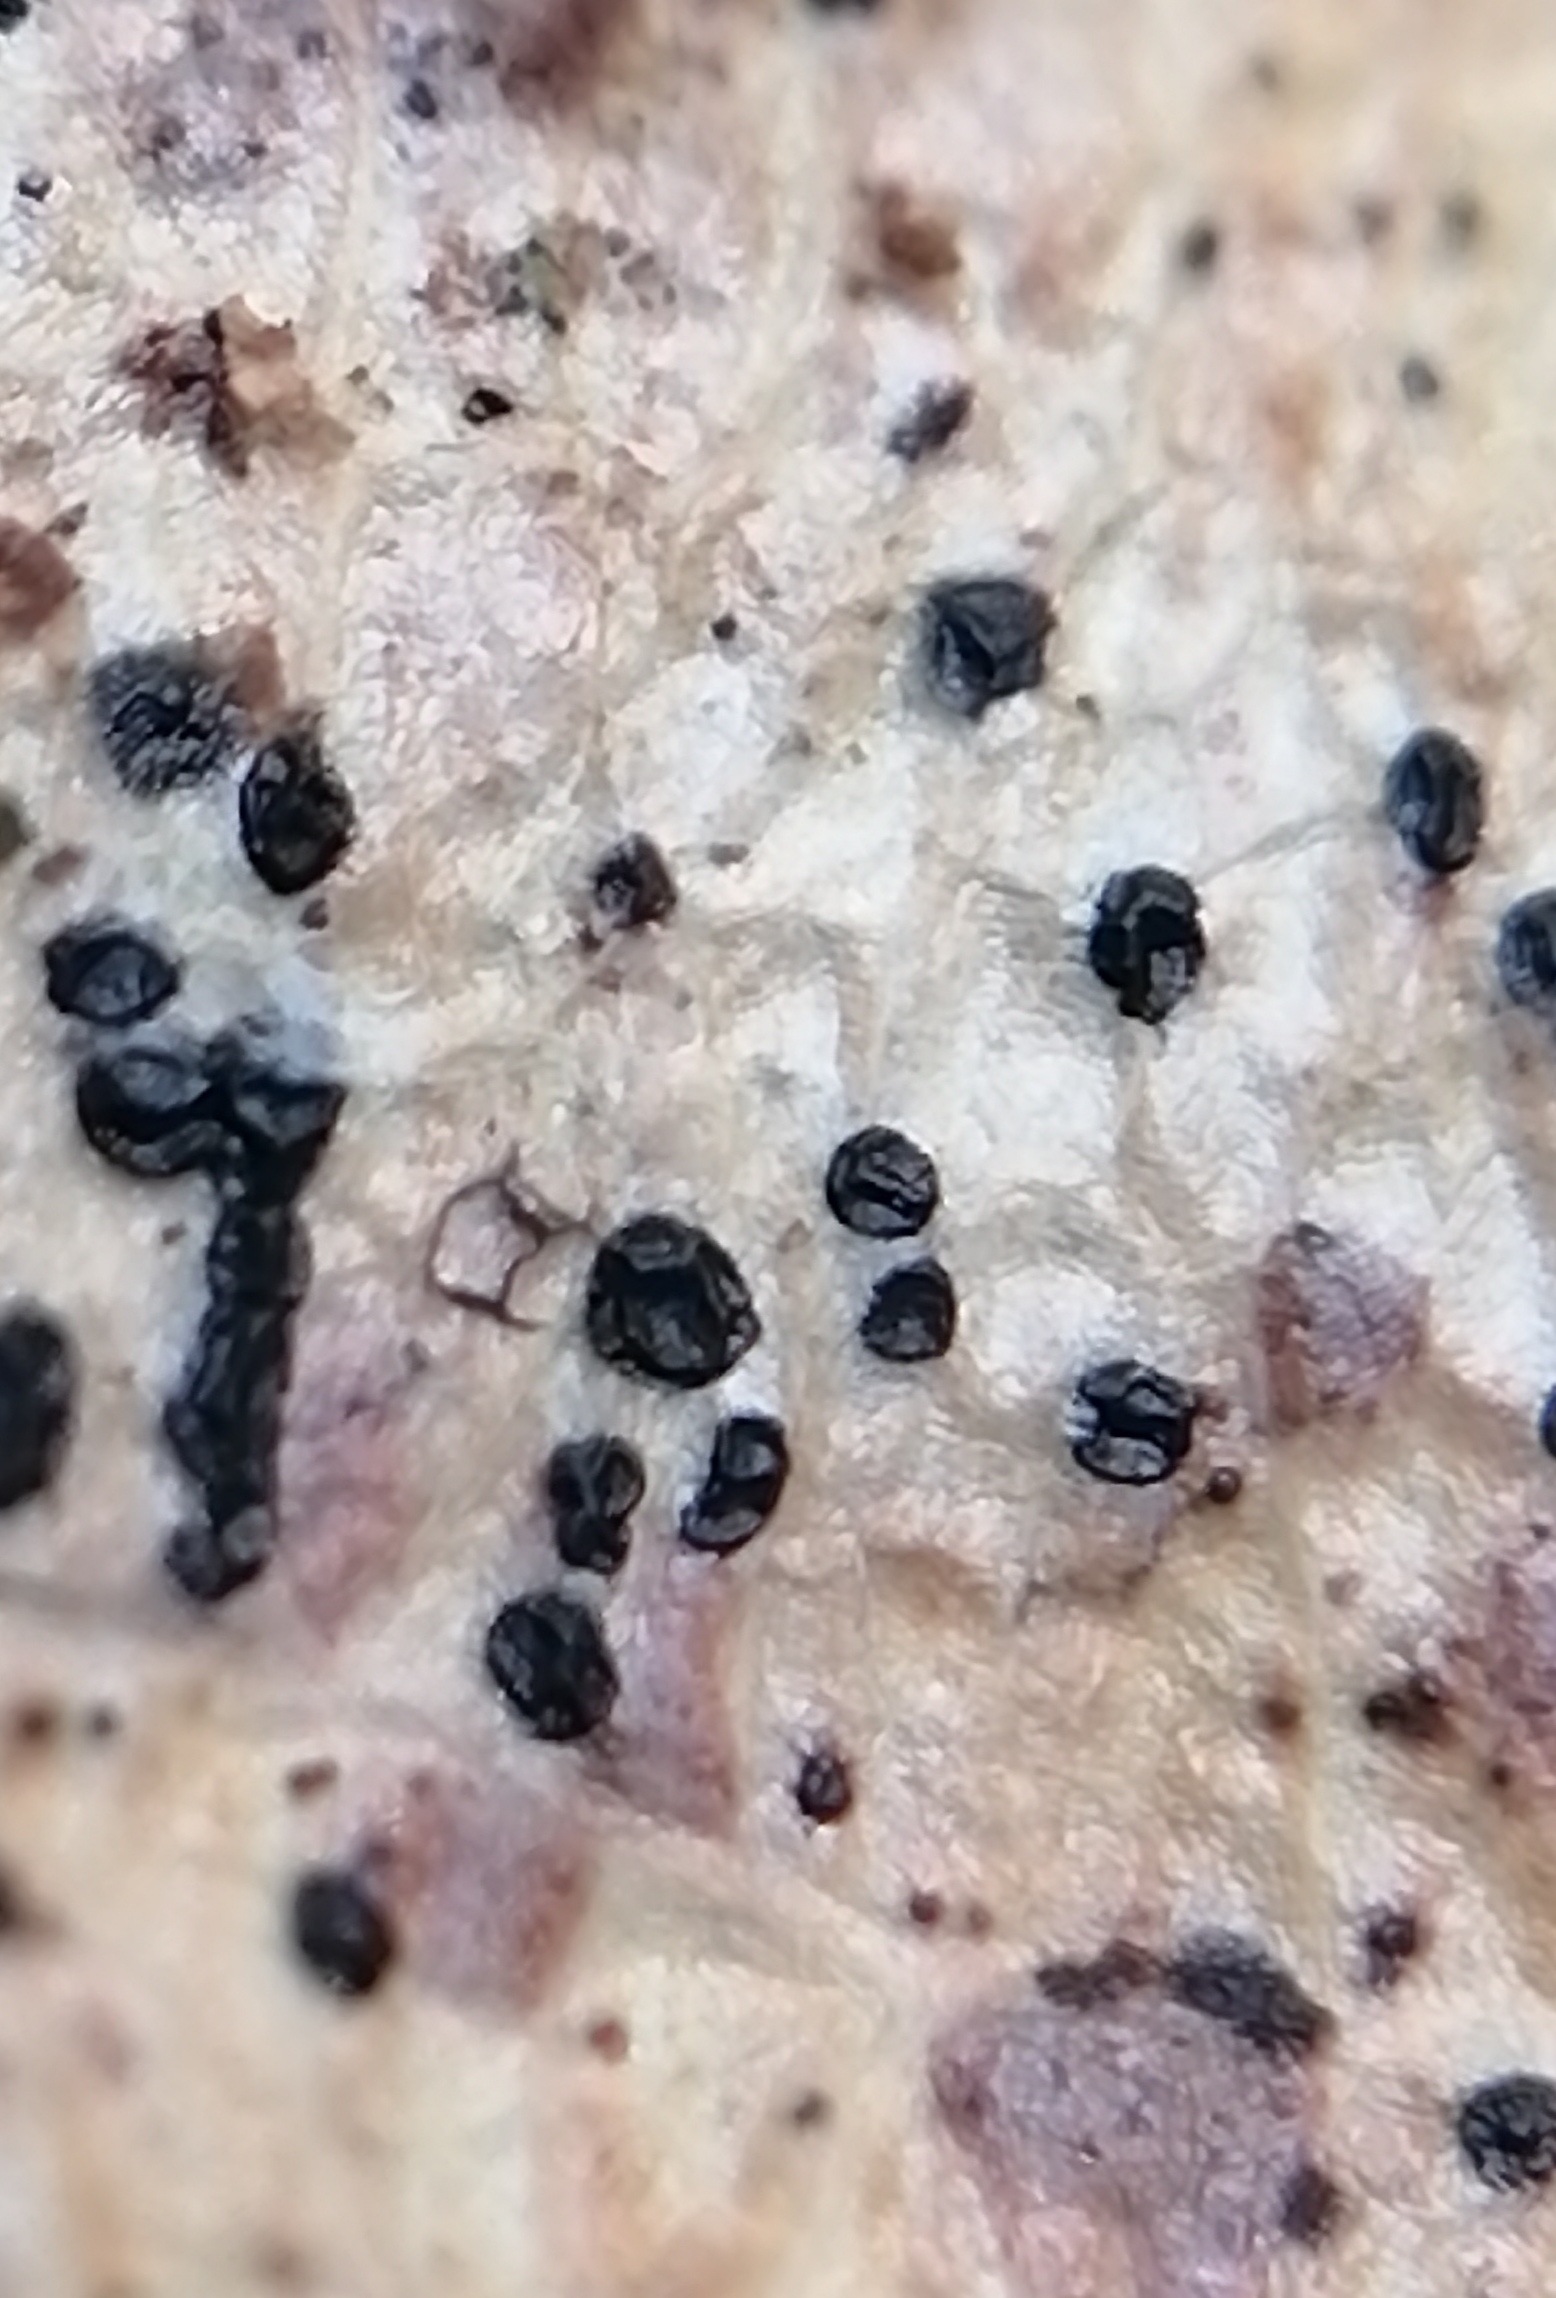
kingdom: Fungi
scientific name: Fungi
